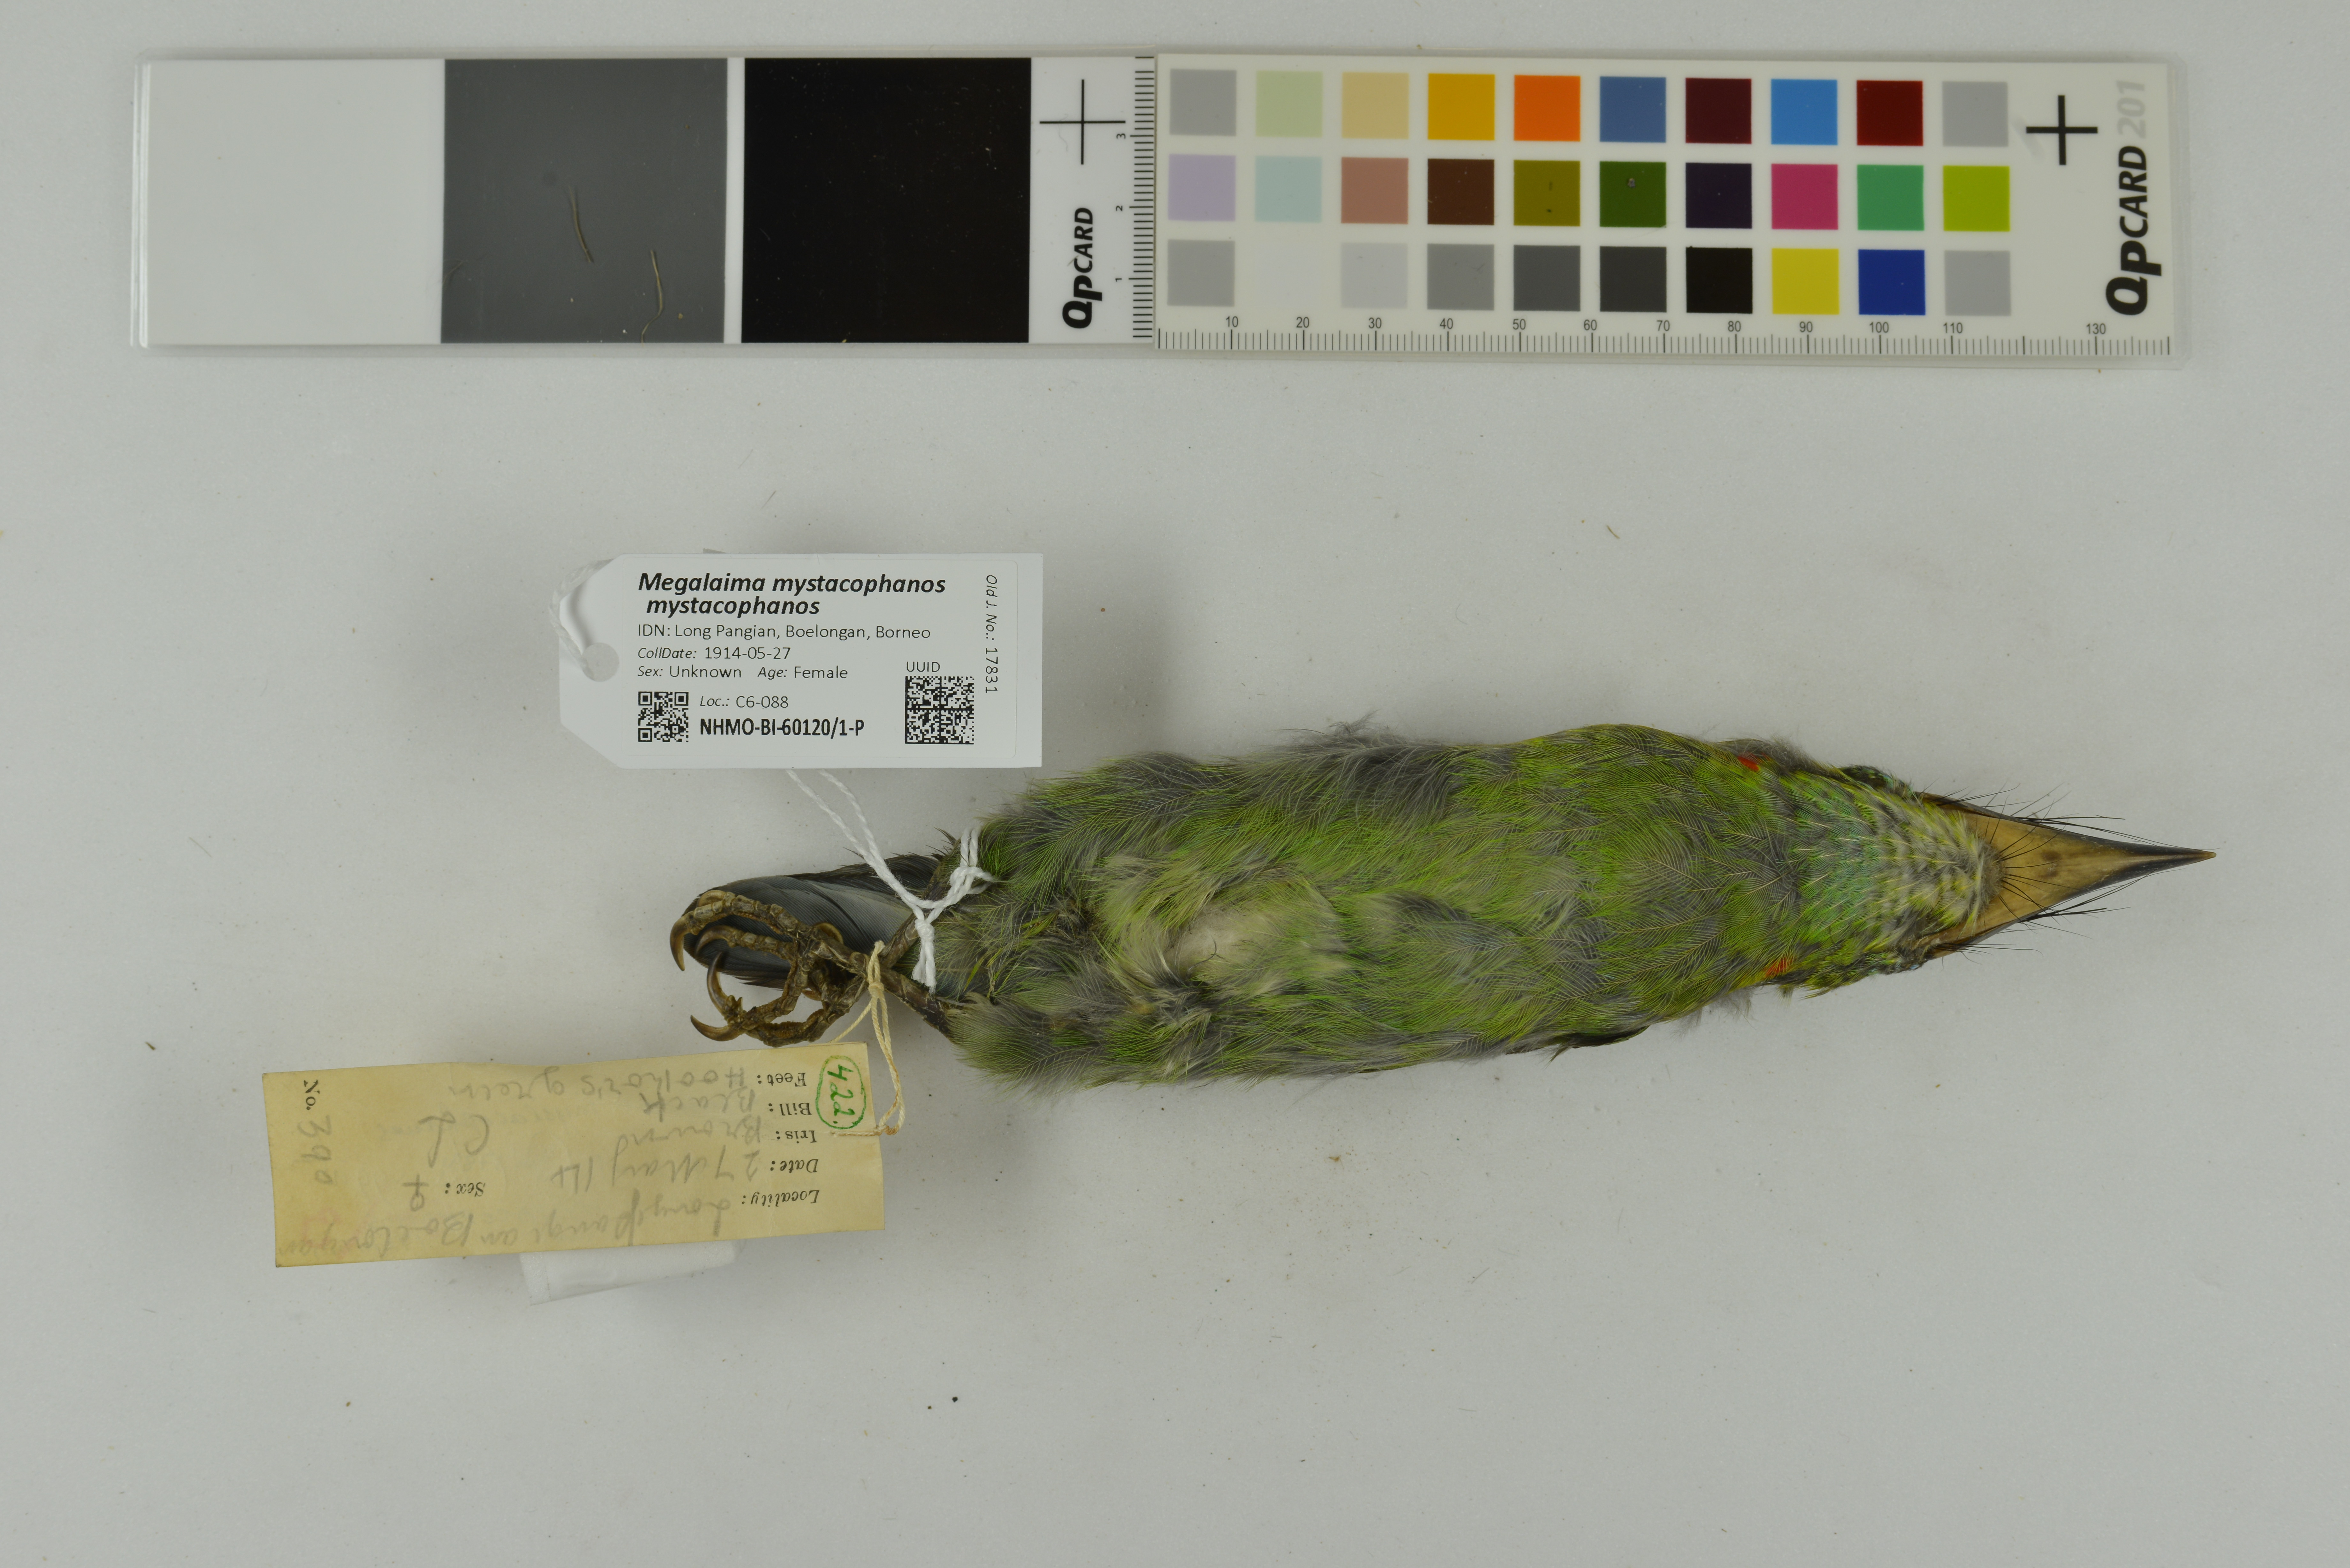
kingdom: Animalia
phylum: Chordata
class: Aves
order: Piciformes
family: Megalaimidae
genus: Psilopogon
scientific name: Psilopogon mystacophanos
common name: Red-throated barbet
